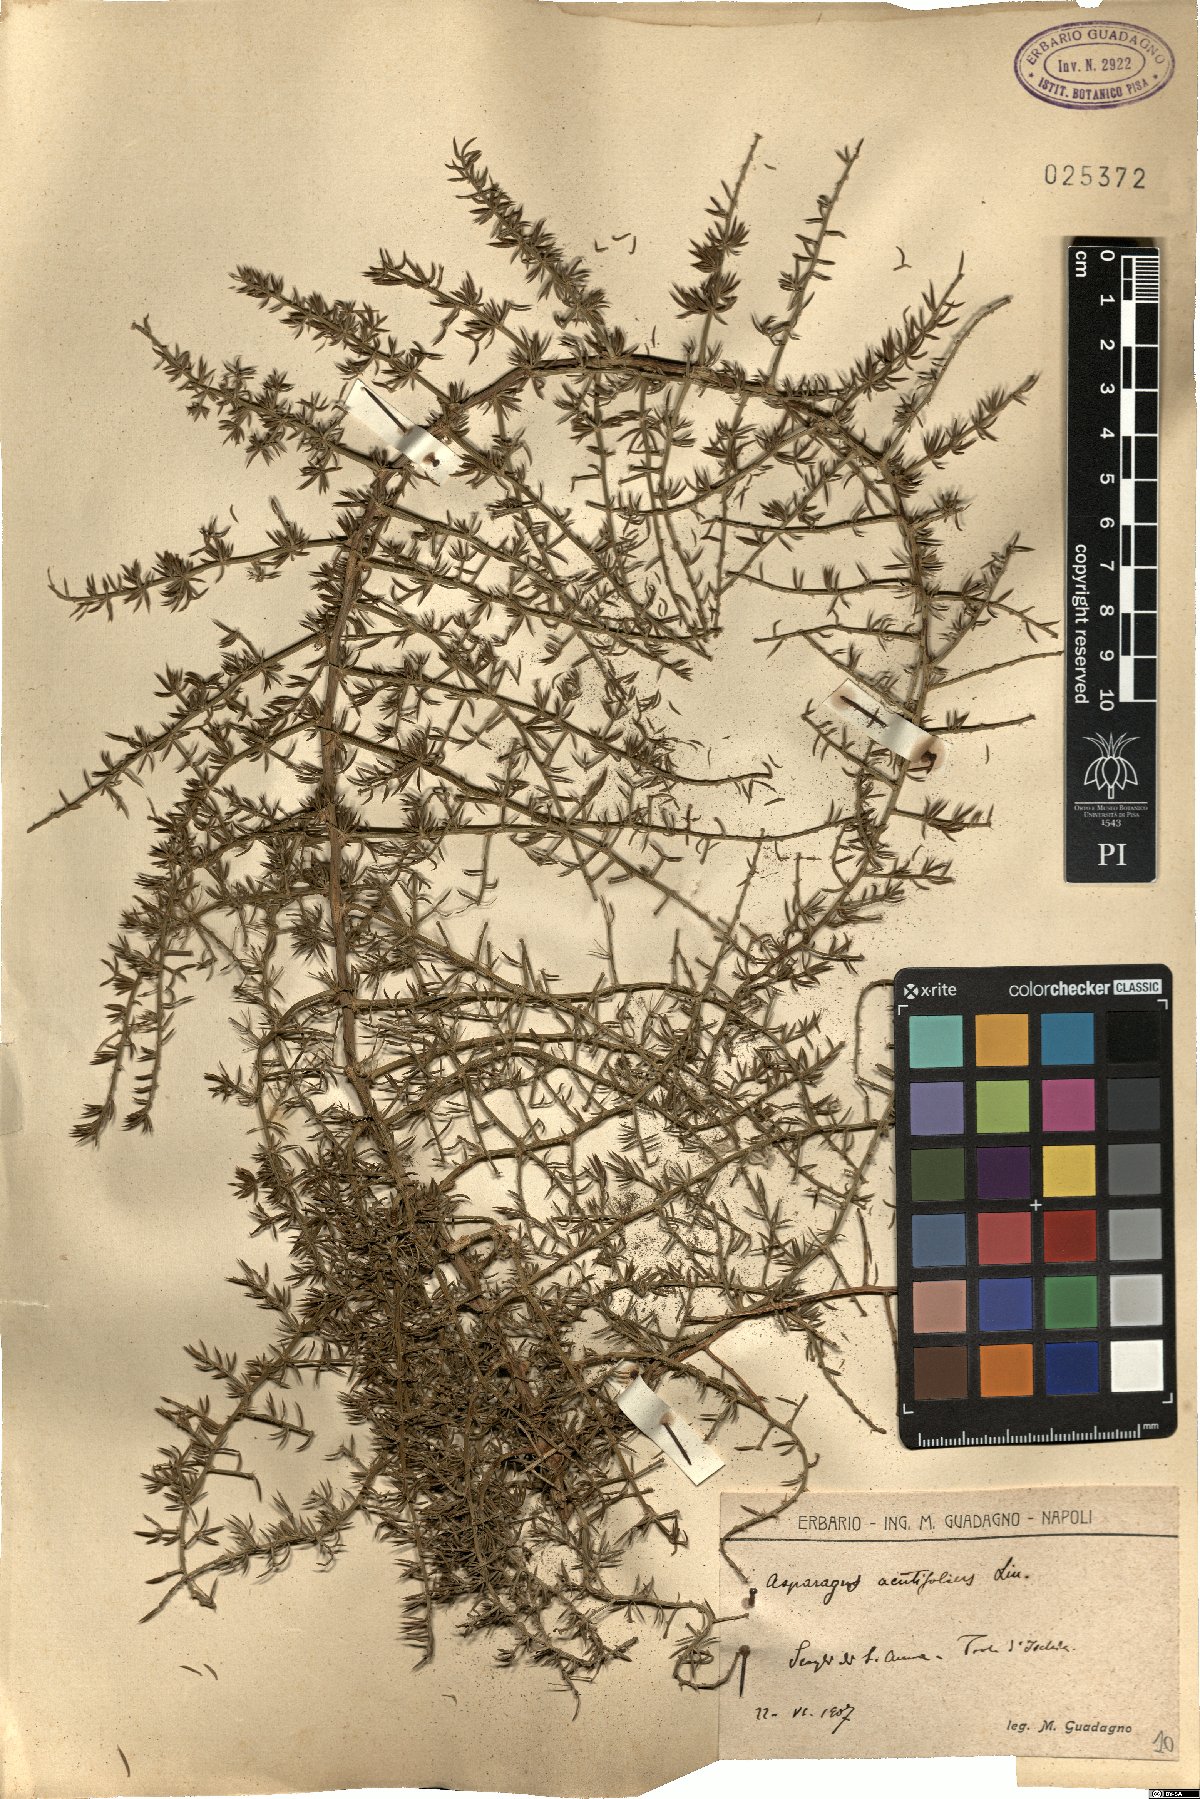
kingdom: Plantae
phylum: Tracheophyta
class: Liliopsida
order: Asparagales
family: Asparagaceae
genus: Asparagus
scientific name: Asparagus acutifolius
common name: Wild asparagus
